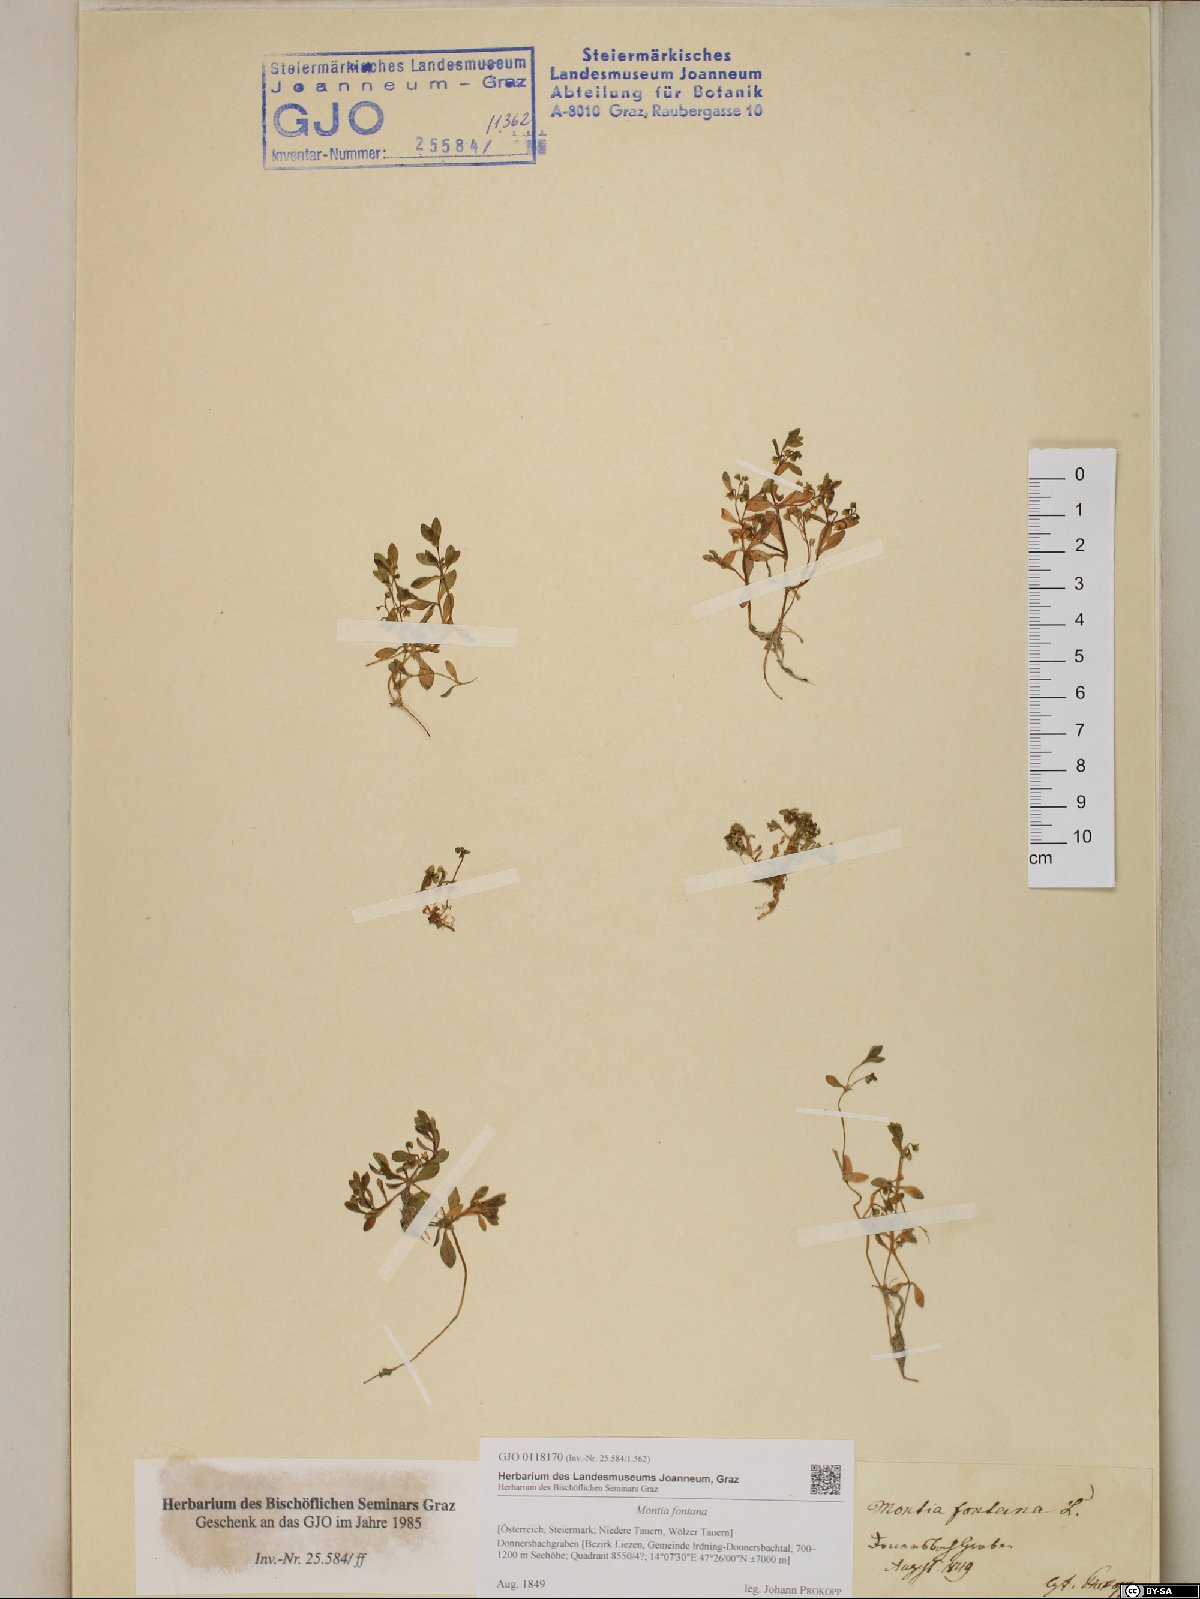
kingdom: Plantae
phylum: Tracheophyta
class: Magnoliopsida
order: Caryophyllales
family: Montiaceae
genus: Montia
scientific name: Montia fontana
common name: Blinks
